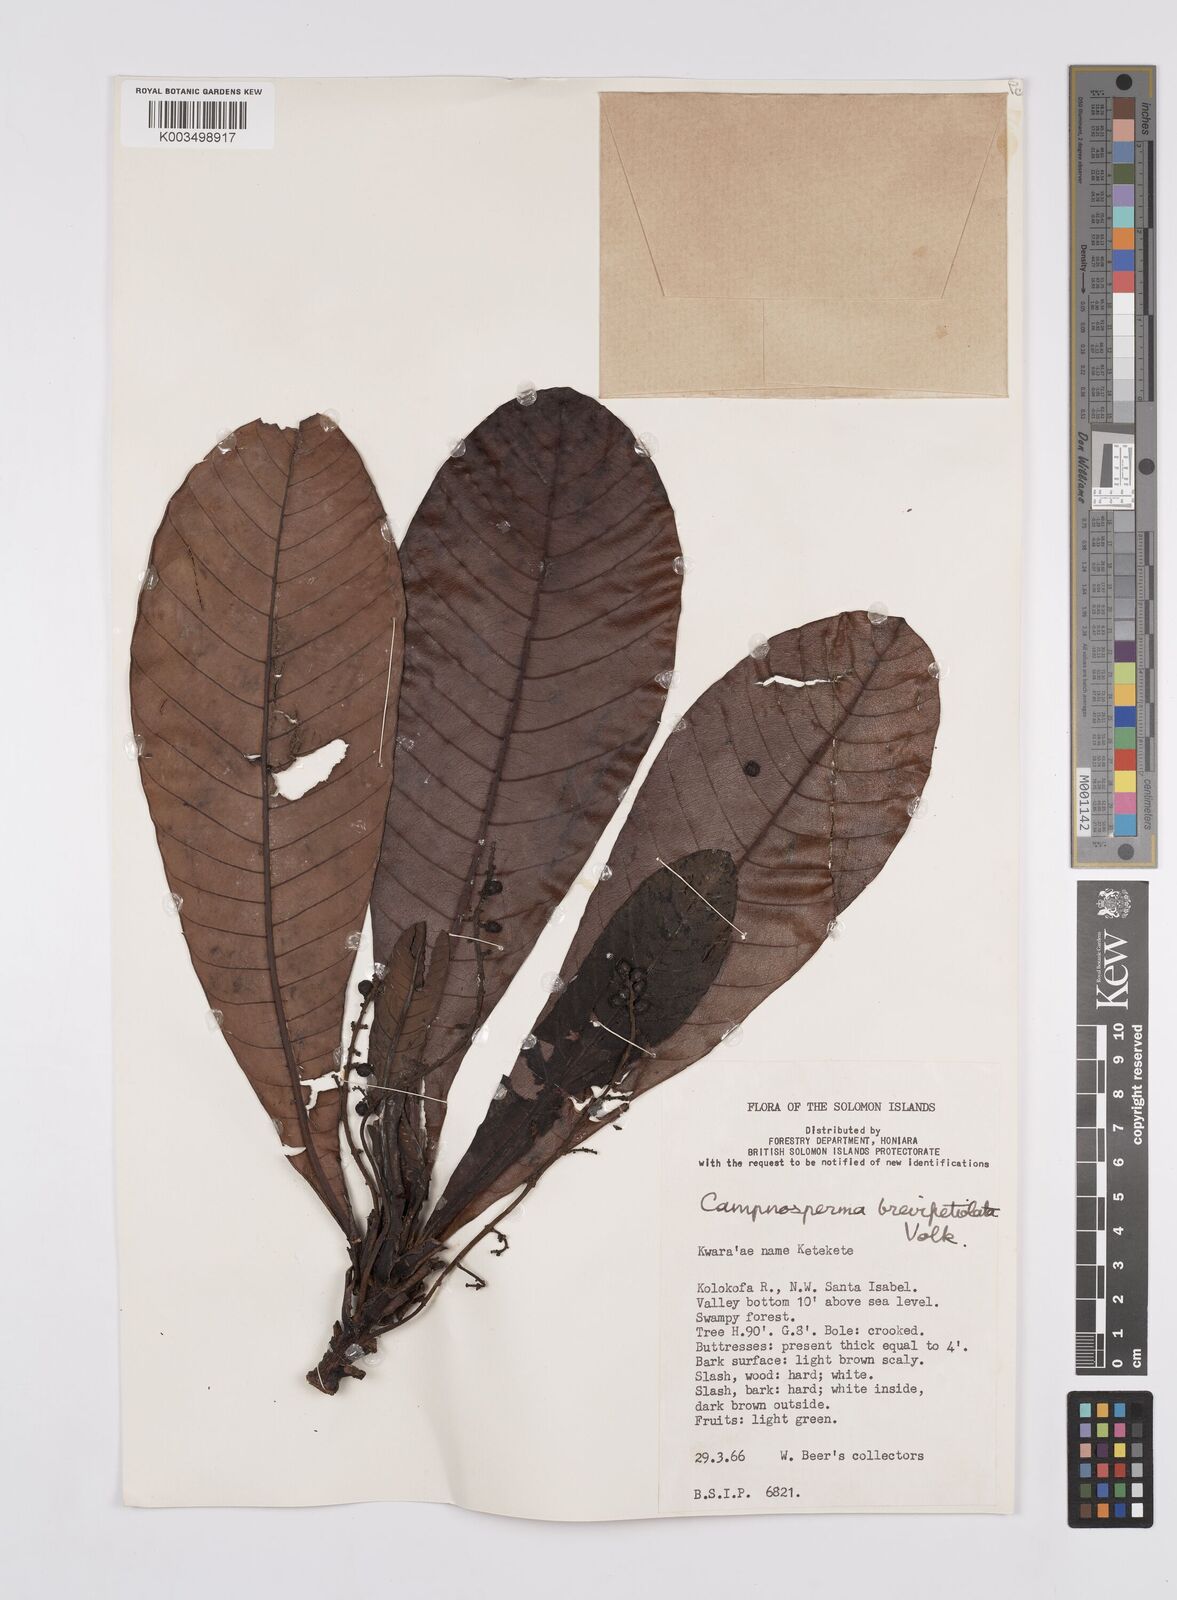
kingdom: Plantae
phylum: Tracheophyta
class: Magnoliopsida
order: Sapindales
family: Anacardiaceae
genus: Campnosperma
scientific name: Campnosperma brevipetiolatum
